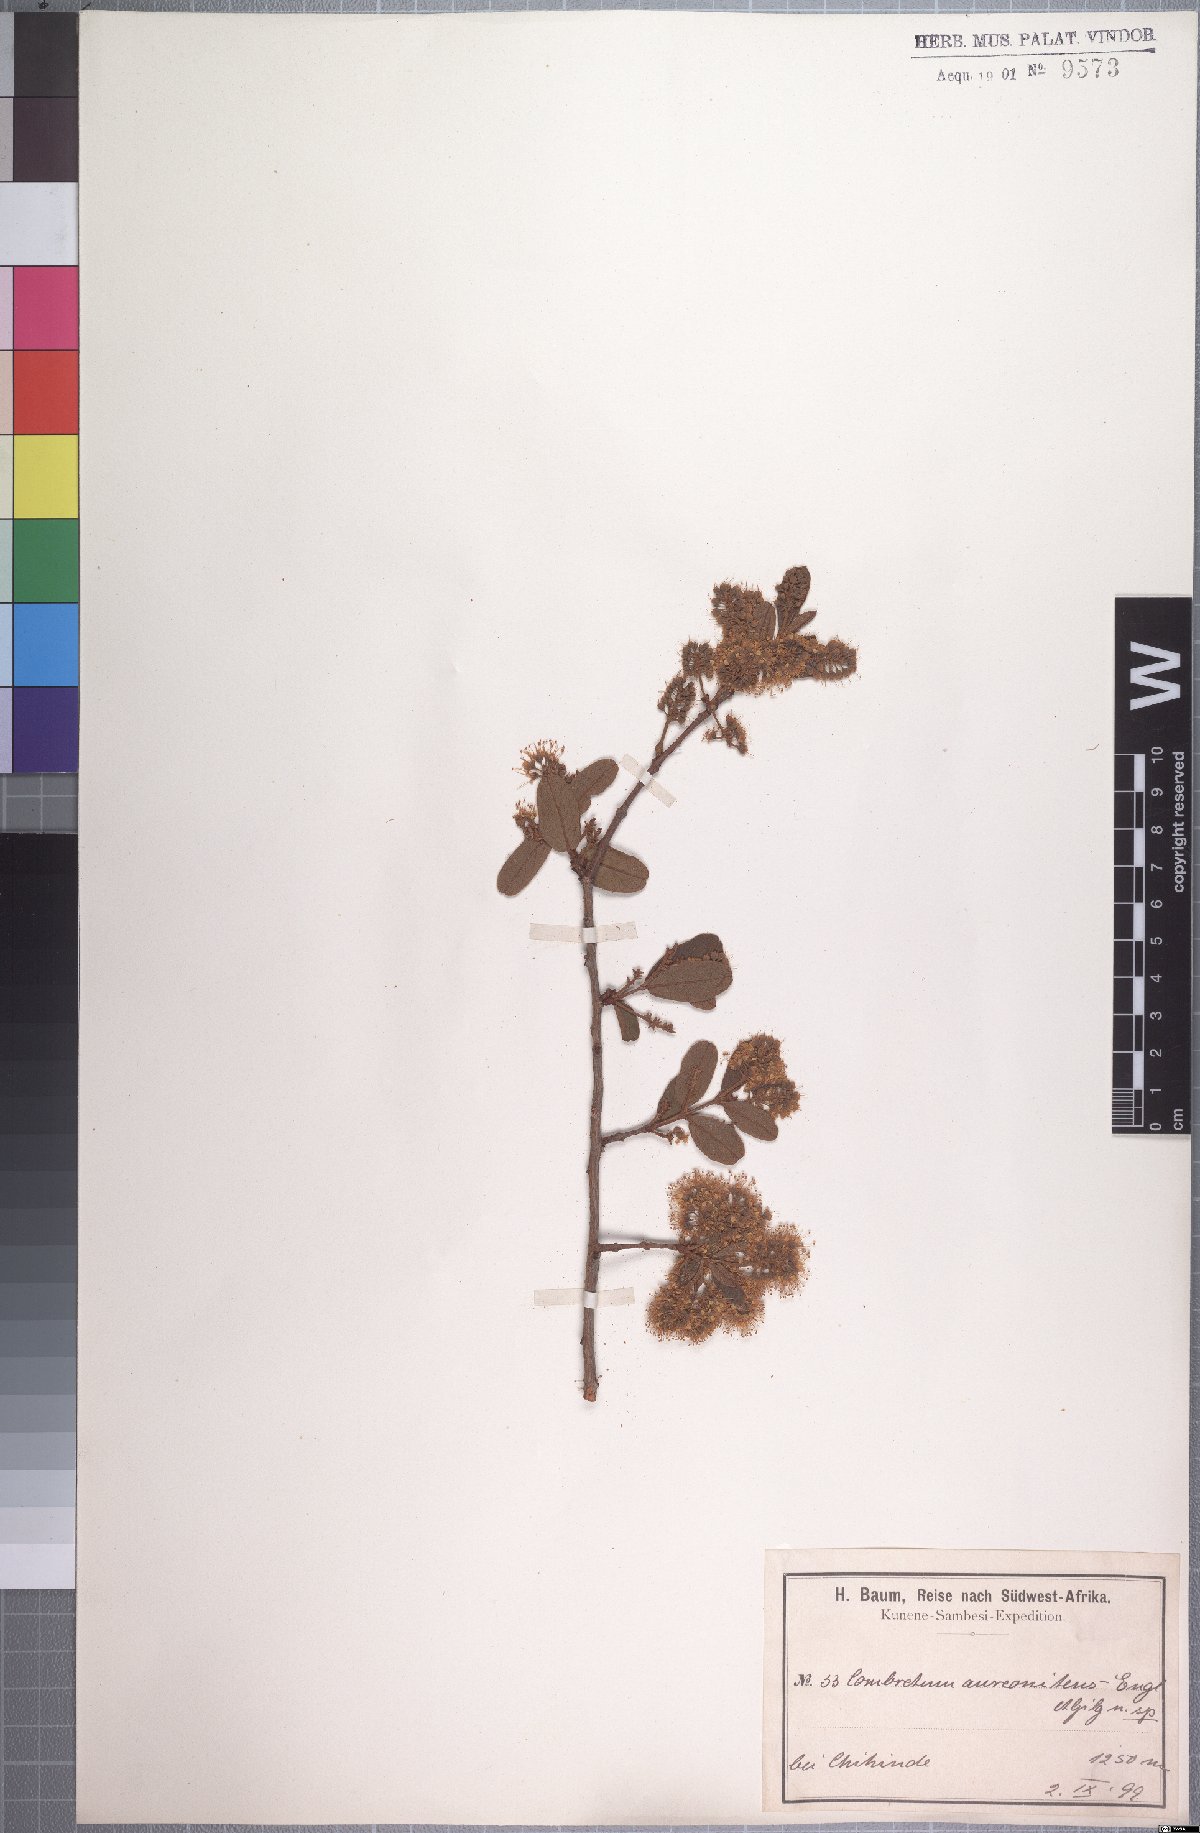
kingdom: Plantae
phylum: Tracheophyta
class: Magnoliopsida
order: Myrtales
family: Combretaceae
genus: Combretum
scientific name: Combretum aureonitens
